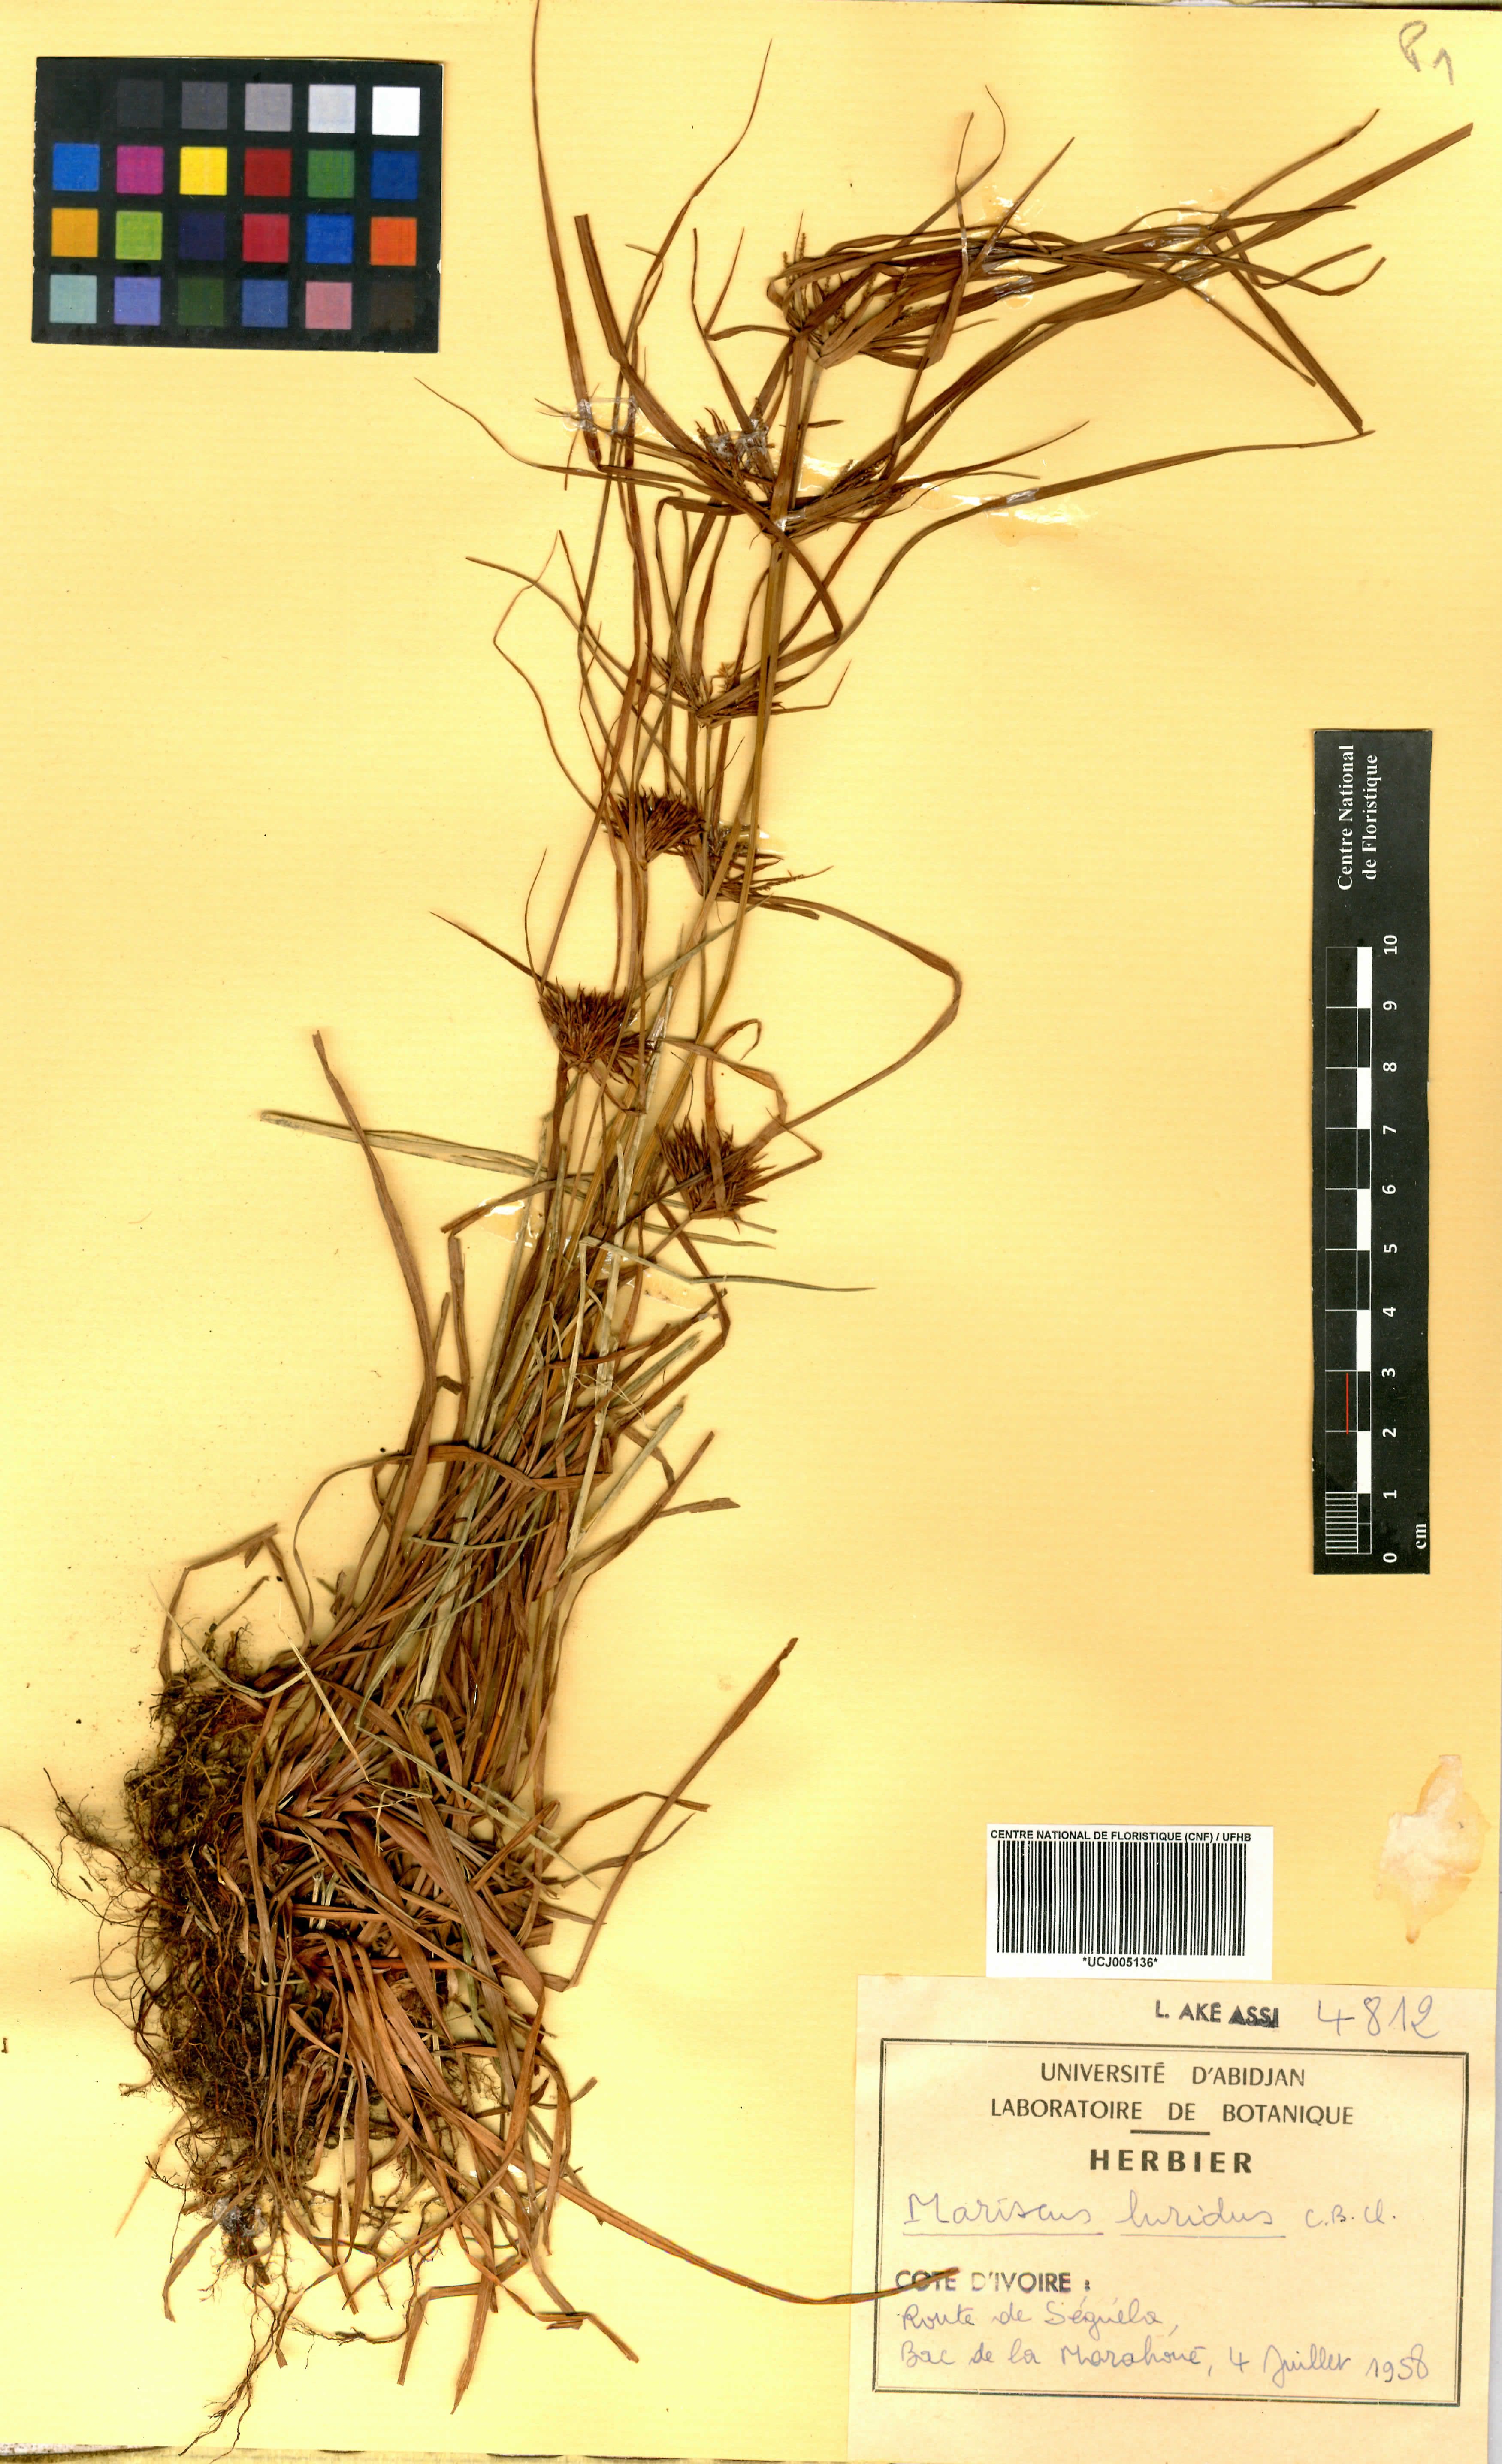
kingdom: Plantae
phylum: Tracheophyta
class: Liliopsida
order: Poales
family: Cyperaceae
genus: Cladium
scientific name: Cladium Mariscus luridus
